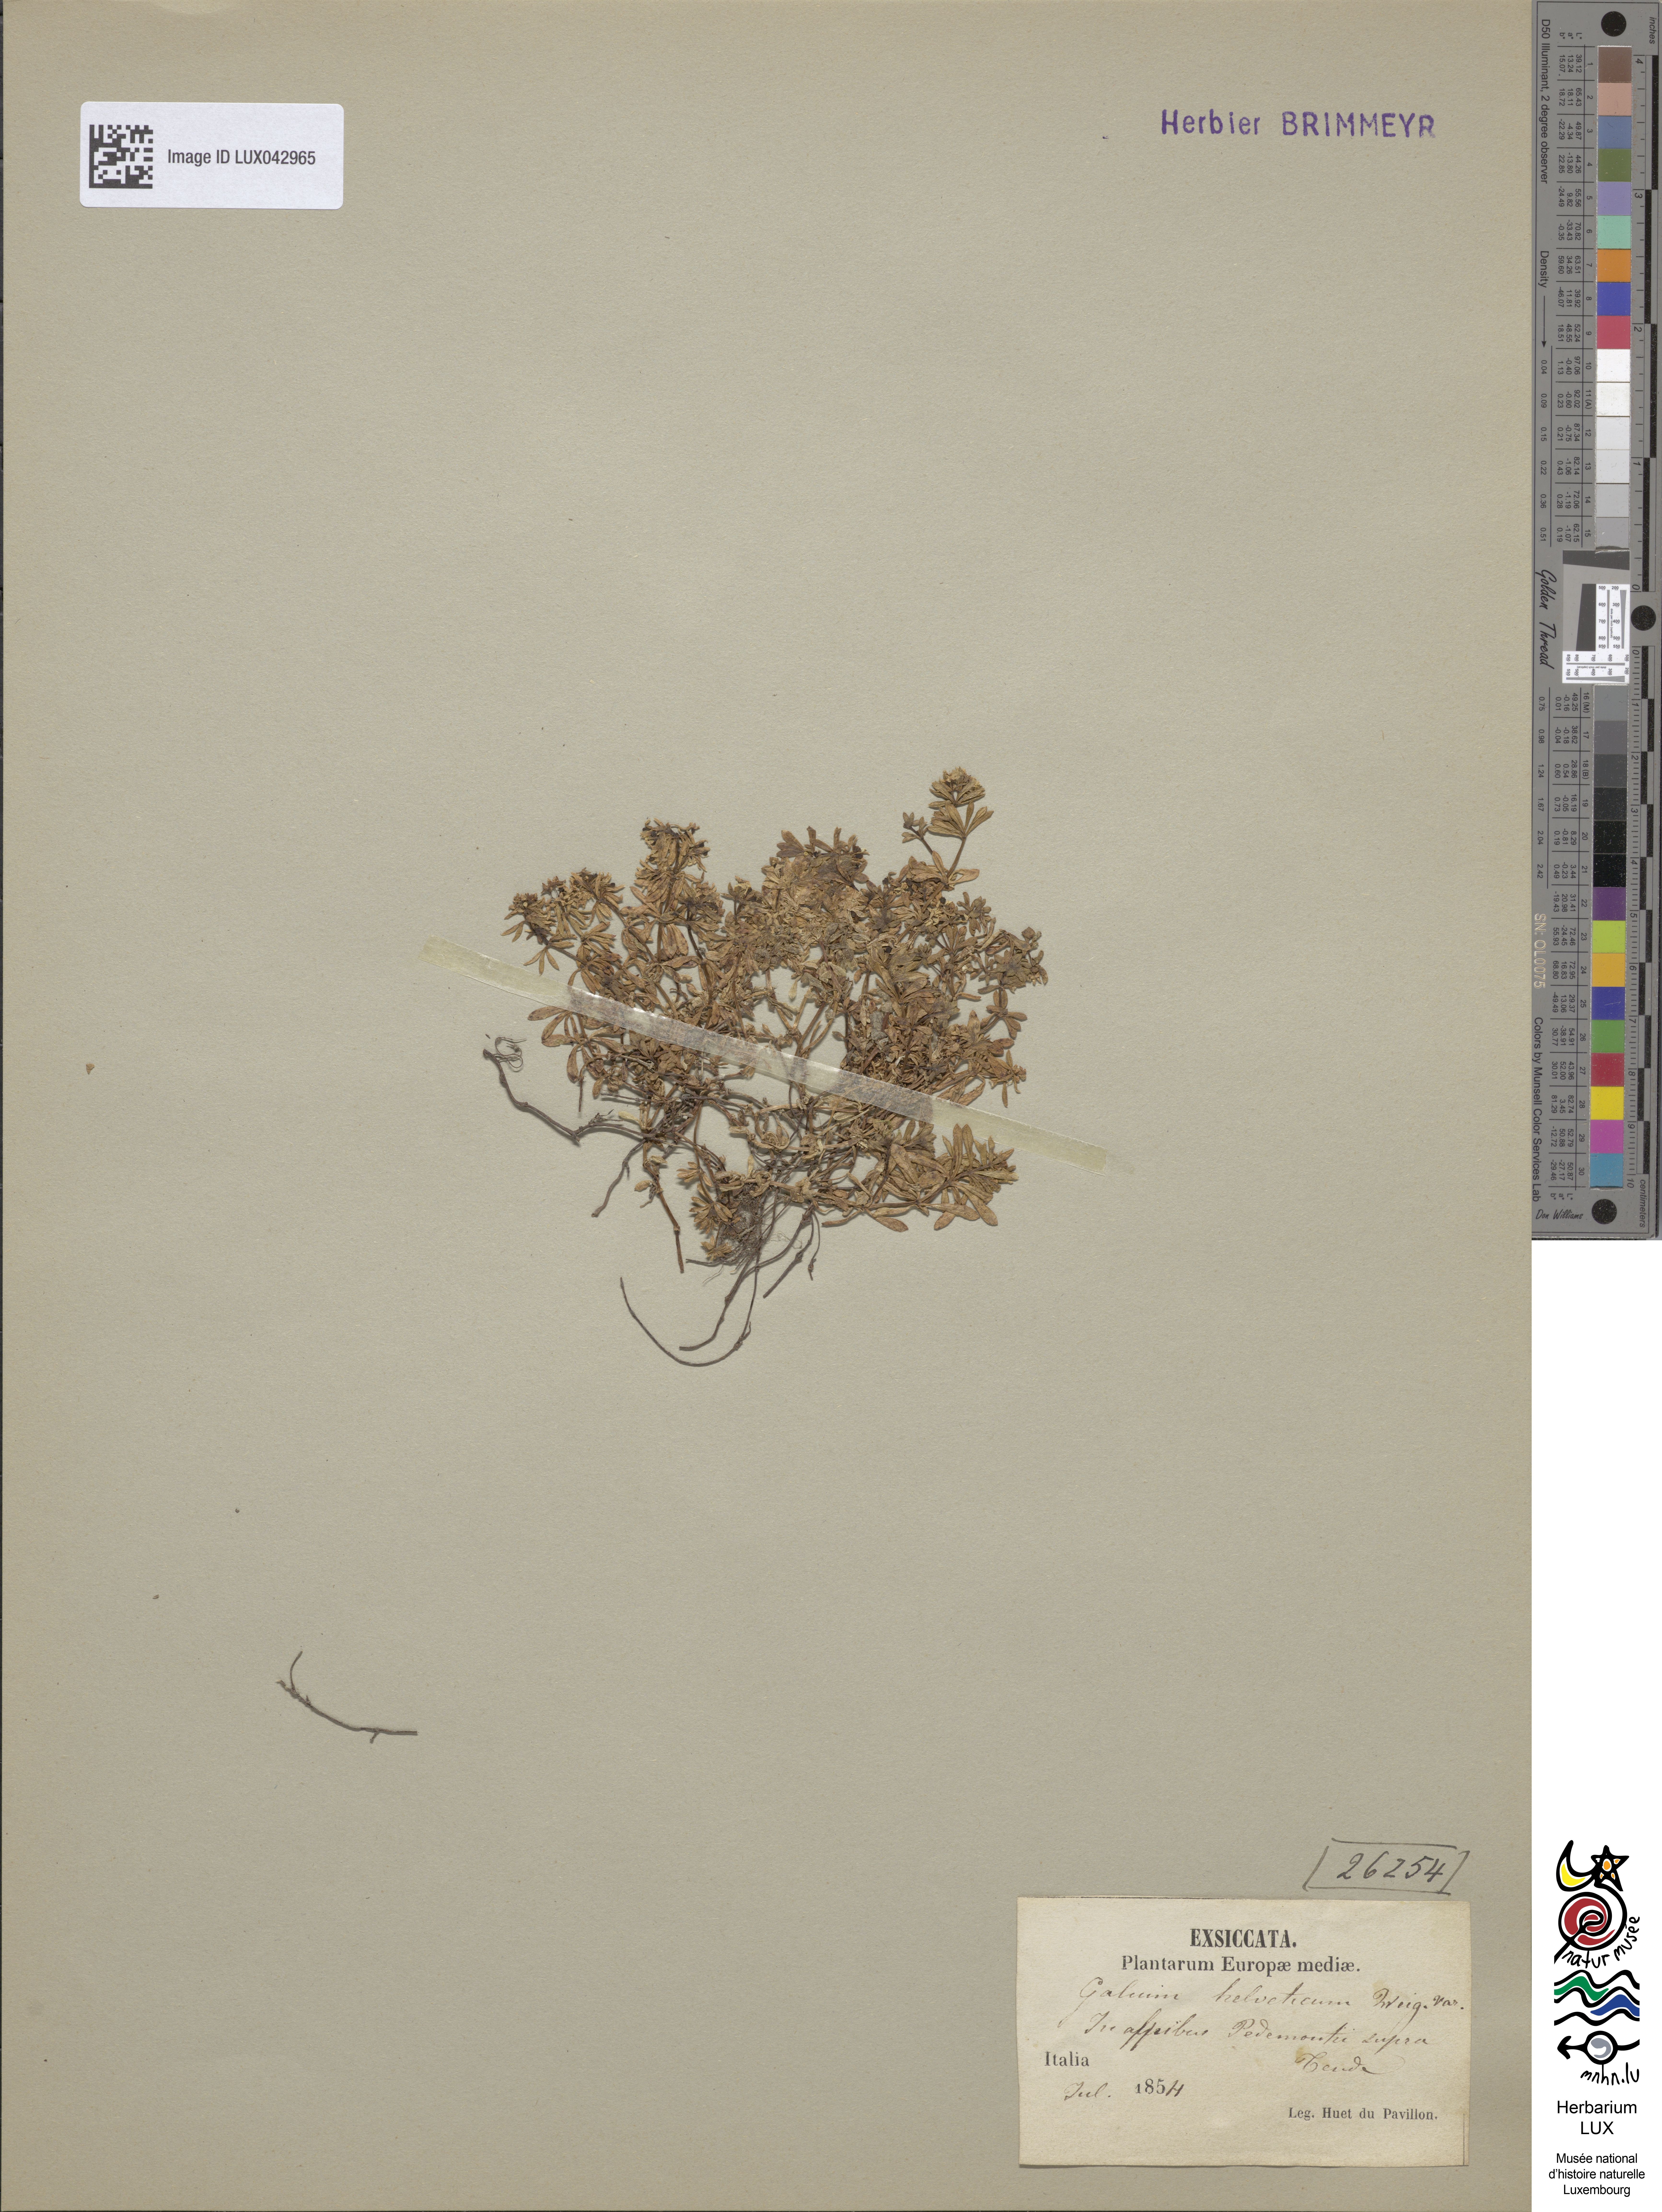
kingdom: Plantae
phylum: Tracheophyta
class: Magnoliopsida
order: Gentianales
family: Rubiaceae
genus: Galium
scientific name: Galium megalospermum
